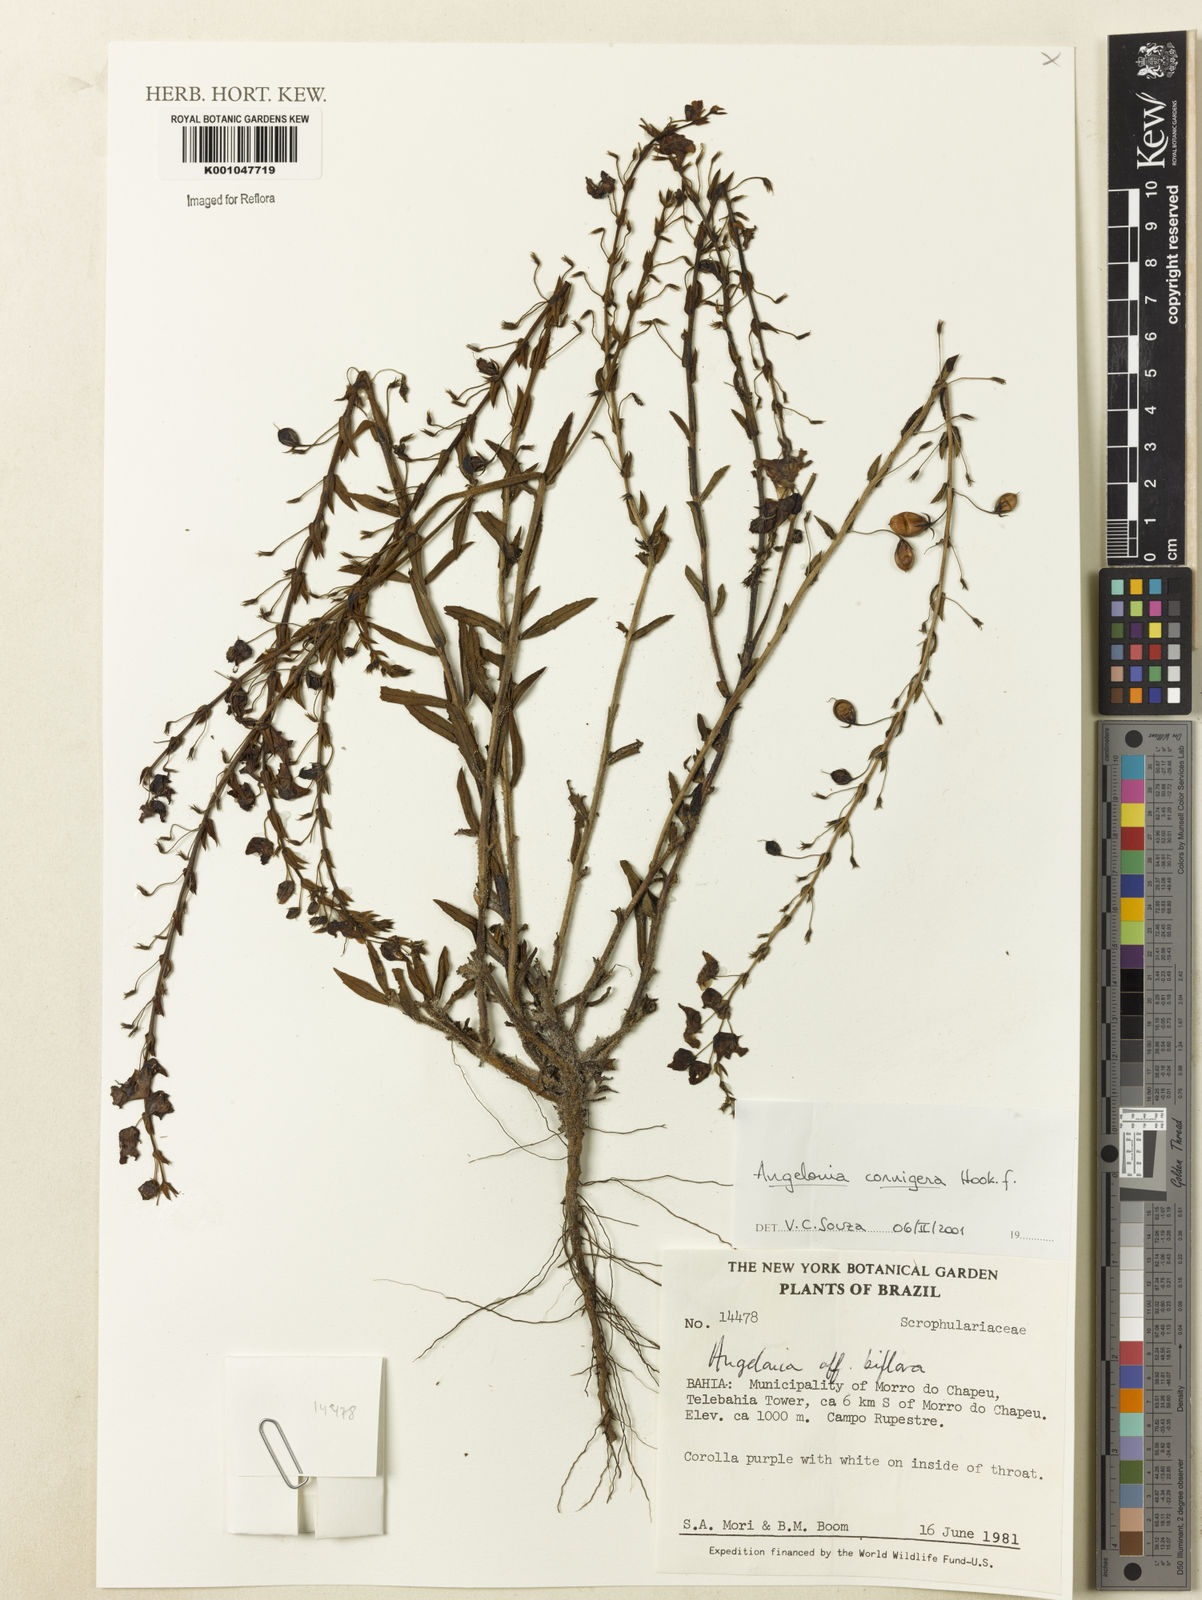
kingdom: Plantae
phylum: Tracheophyta
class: Magnoliopsida
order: Lamiales
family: Plantaginaceae
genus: Angelonia
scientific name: Angelonia cornigera
